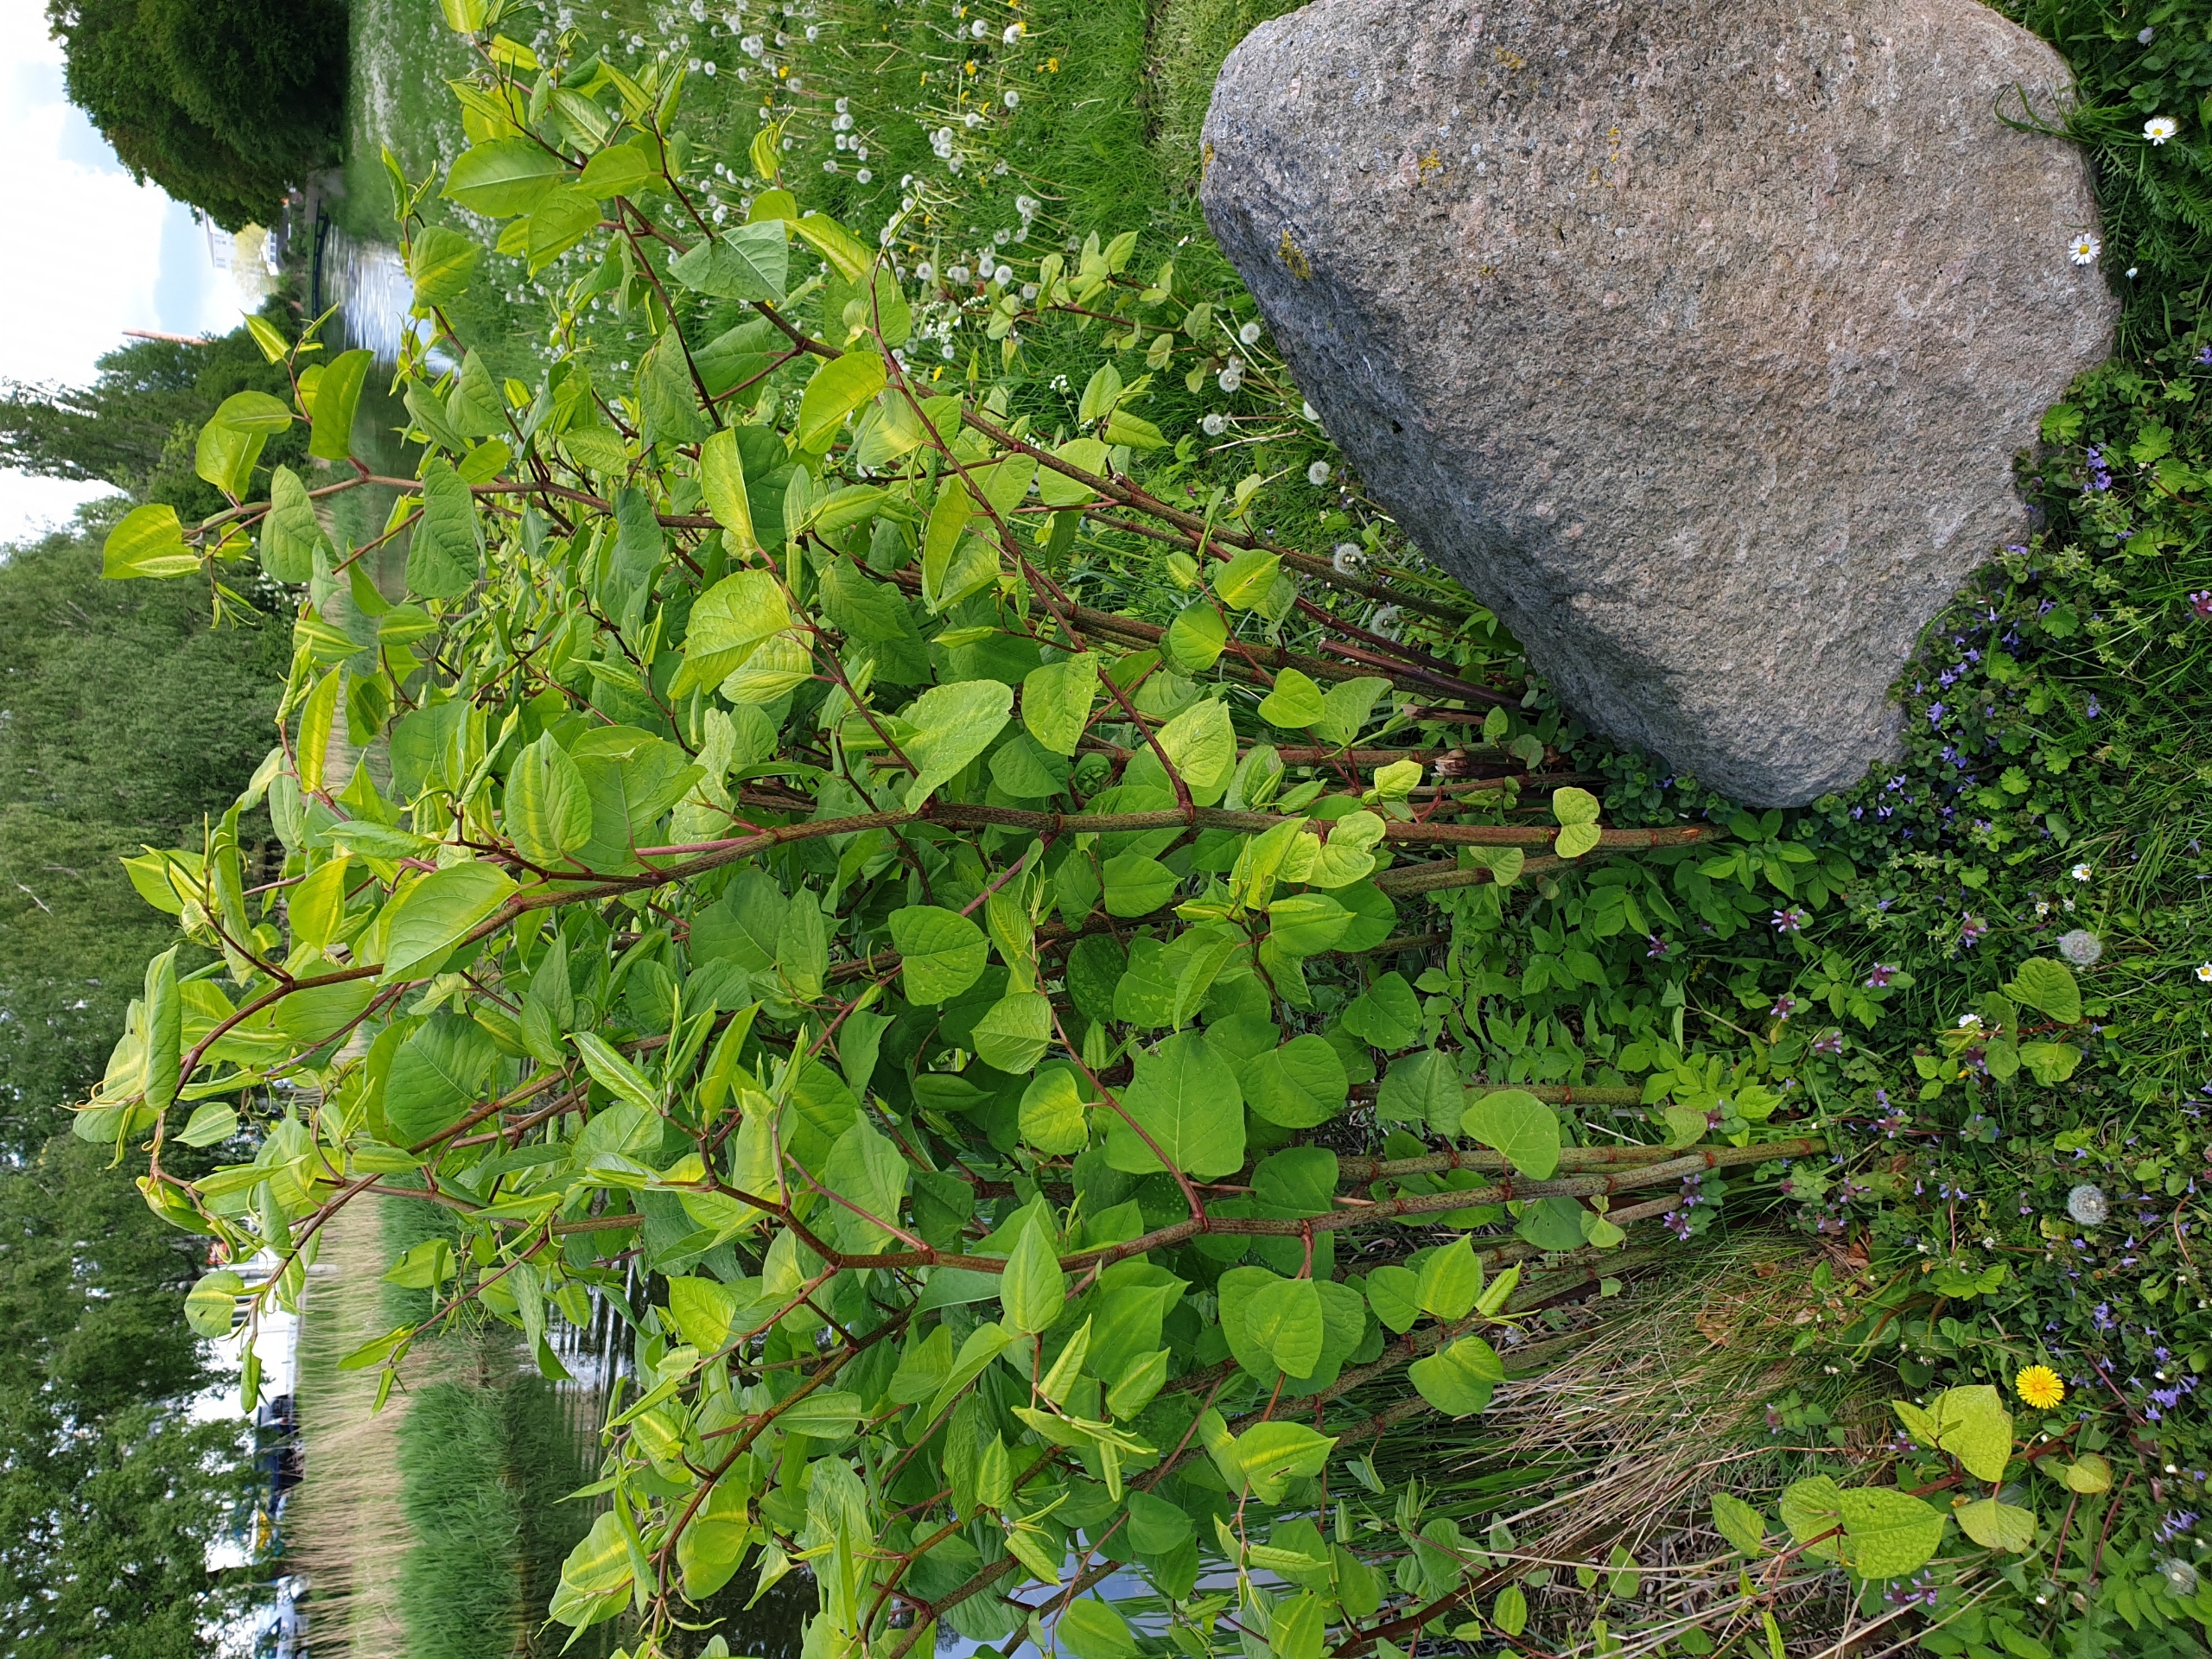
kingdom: Plantae
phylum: Tracheophyta
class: Magnoliopsida
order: Caryophyllales
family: Polygonaceae
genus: Reynoutria
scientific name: Reynoutria japonica
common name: Japan-pileurt
